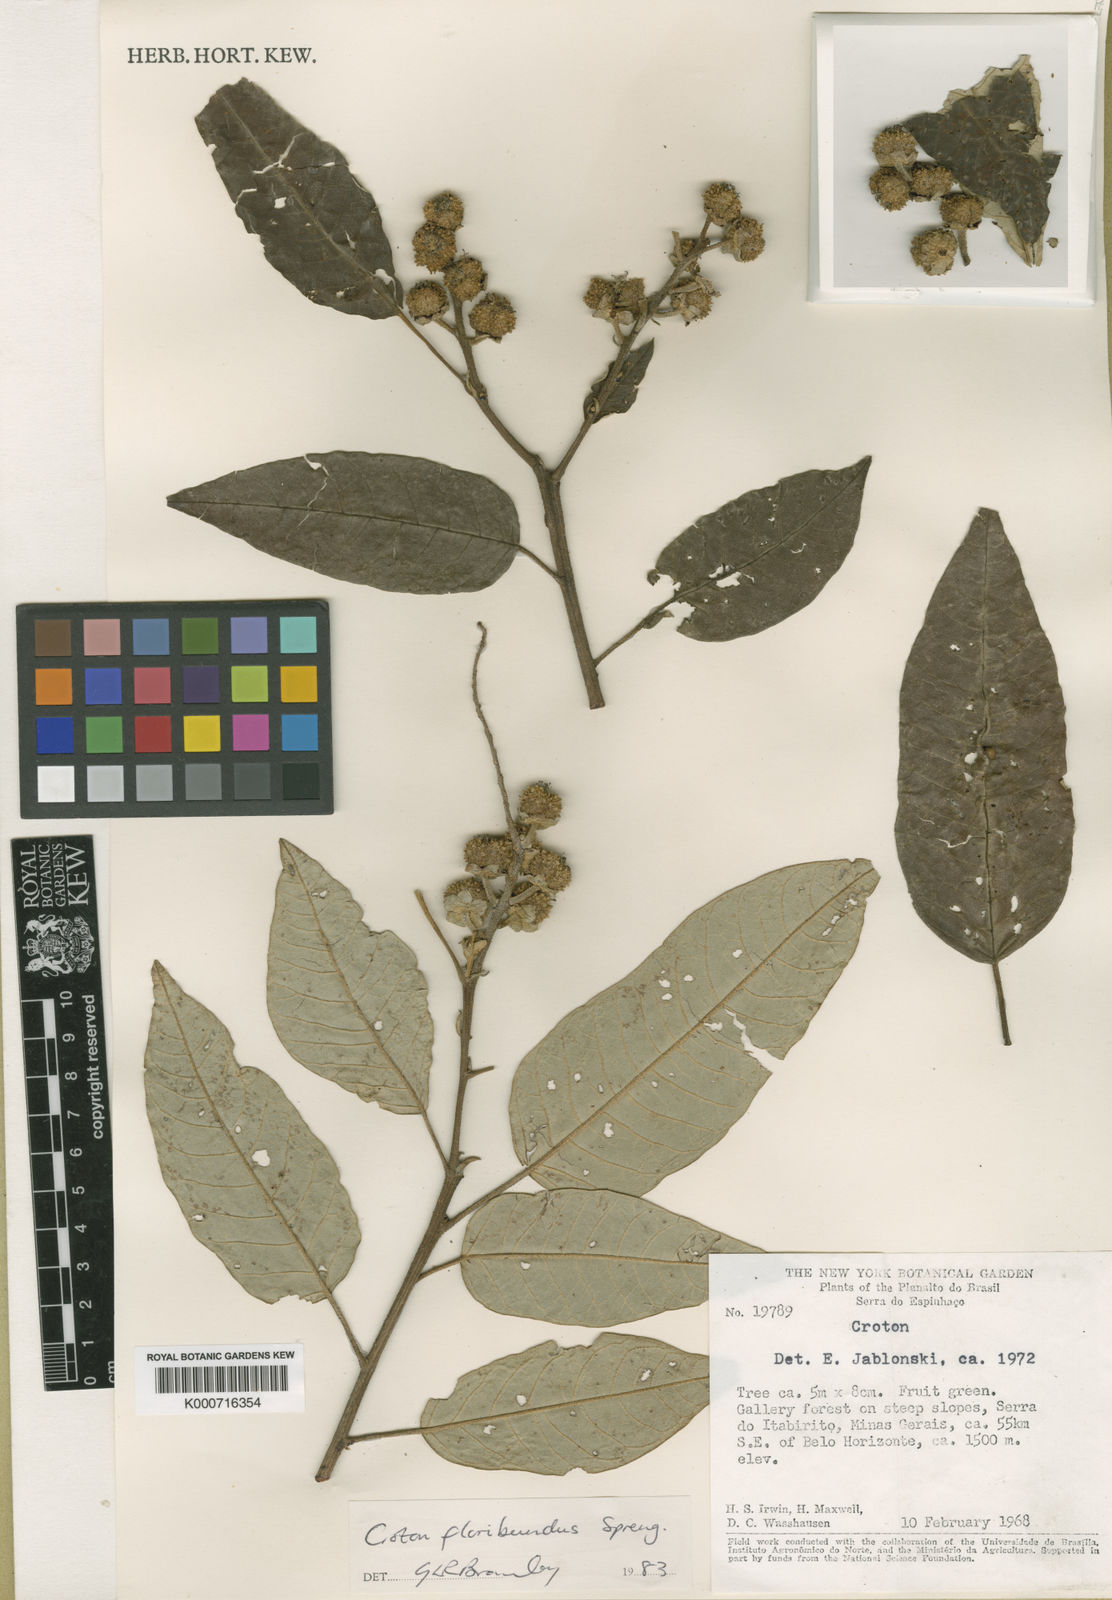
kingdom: Plantae
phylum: Tracheophyta
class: Magnoliopsida
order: Malpighiales
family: Euphorbiaceae
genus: Croton
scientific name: Croton floribundus
